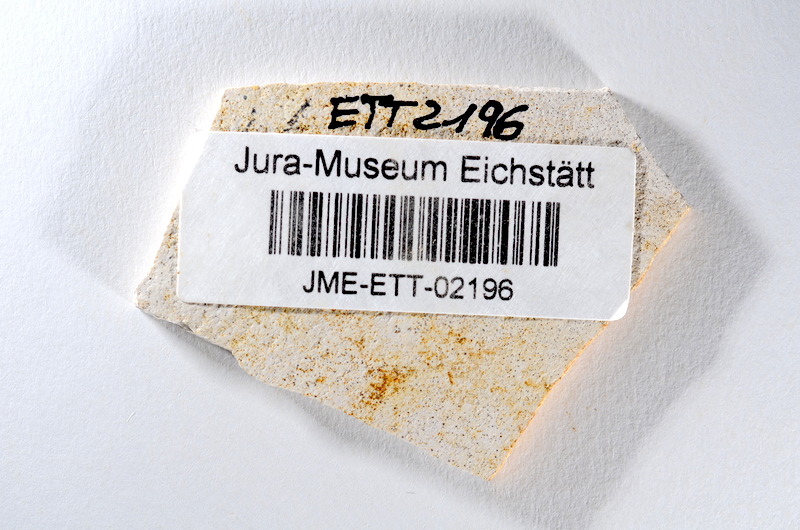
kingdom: Animalia
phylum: Chordata
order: Salmoniformes
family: Orthogonikleithridae
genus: Orthogonikleithrus
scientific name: Orthogonikleithrus hoelli
